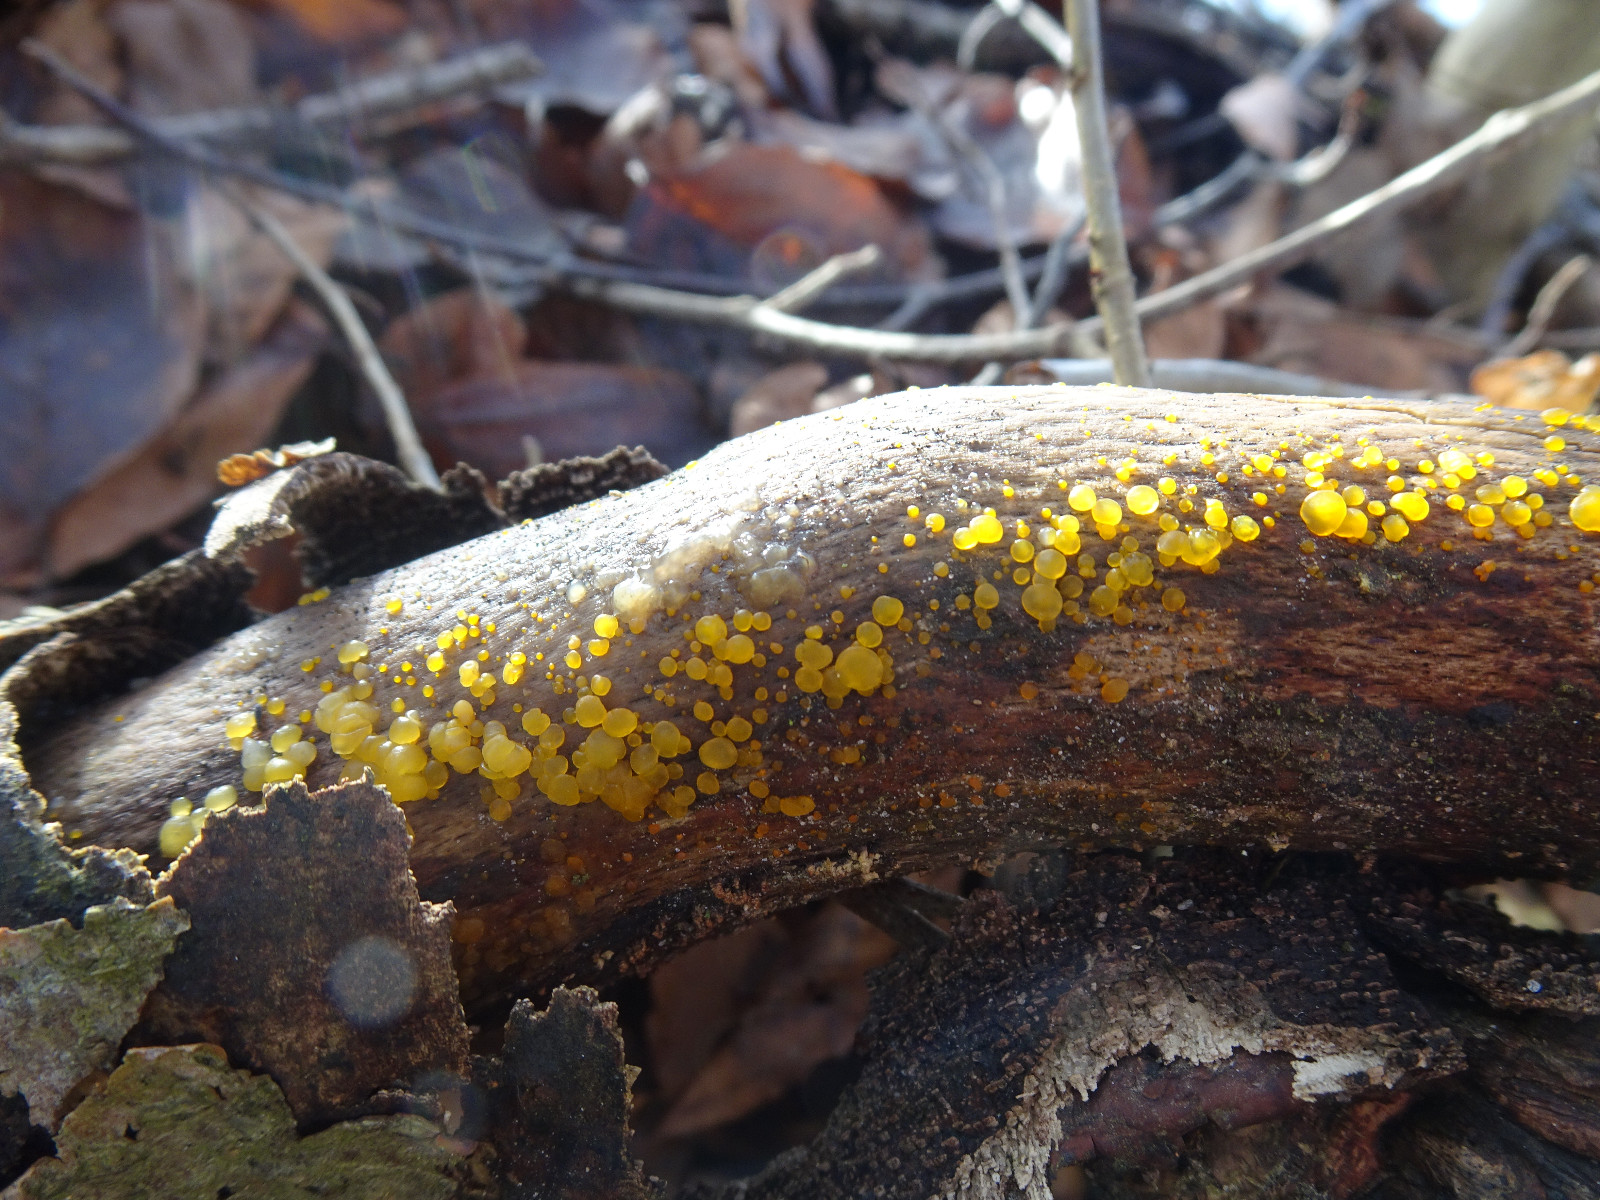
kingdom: Fungi
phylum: Basidiomycota
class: Dacrymycetes
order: Dacrymycetales
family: Dacrymycetaceae
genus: Dacrymyces
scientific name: Dacrymyces
